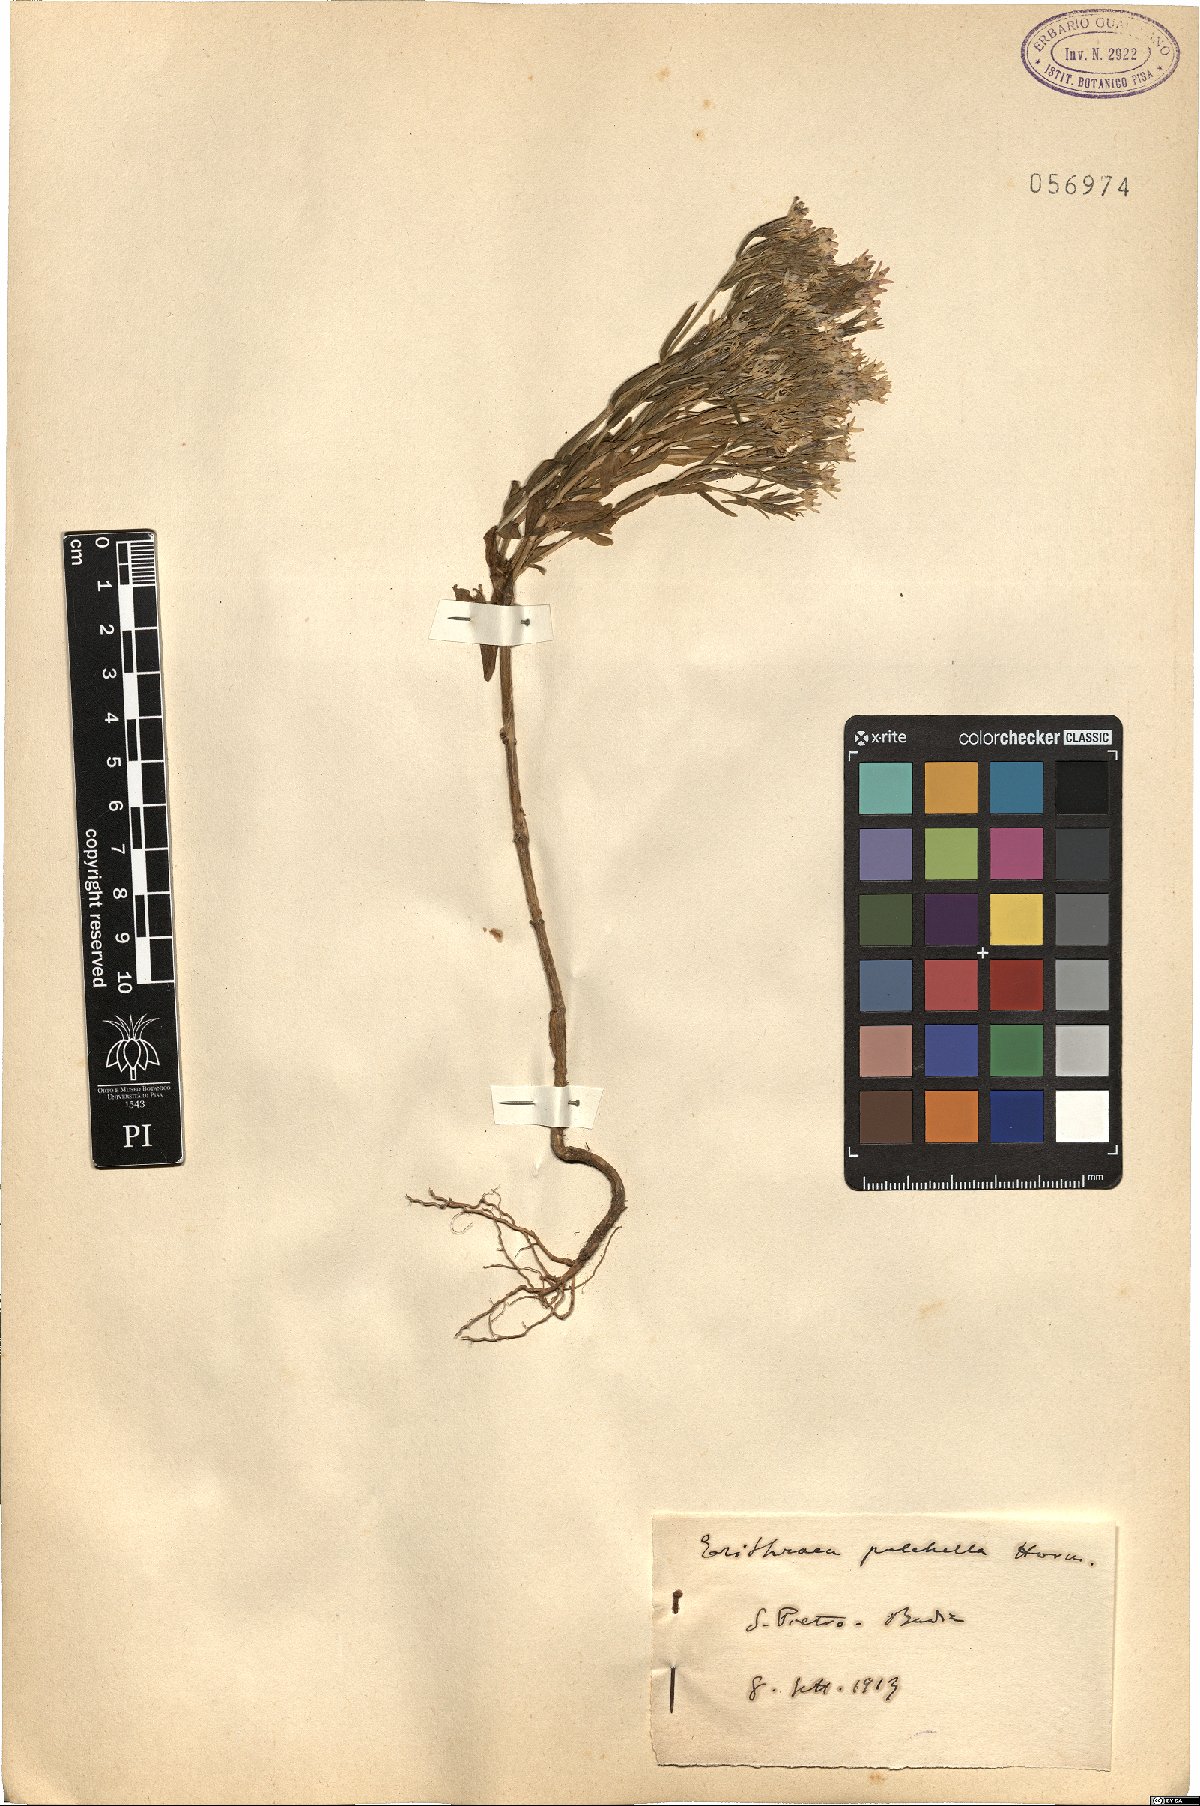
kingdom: Plantae
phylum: Tracheophyta
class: Magnoliopsida
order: Gentianales
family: Gentianaceae
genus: Centaurium
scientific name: Centaurium pulchellum
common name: Lesser centaury
